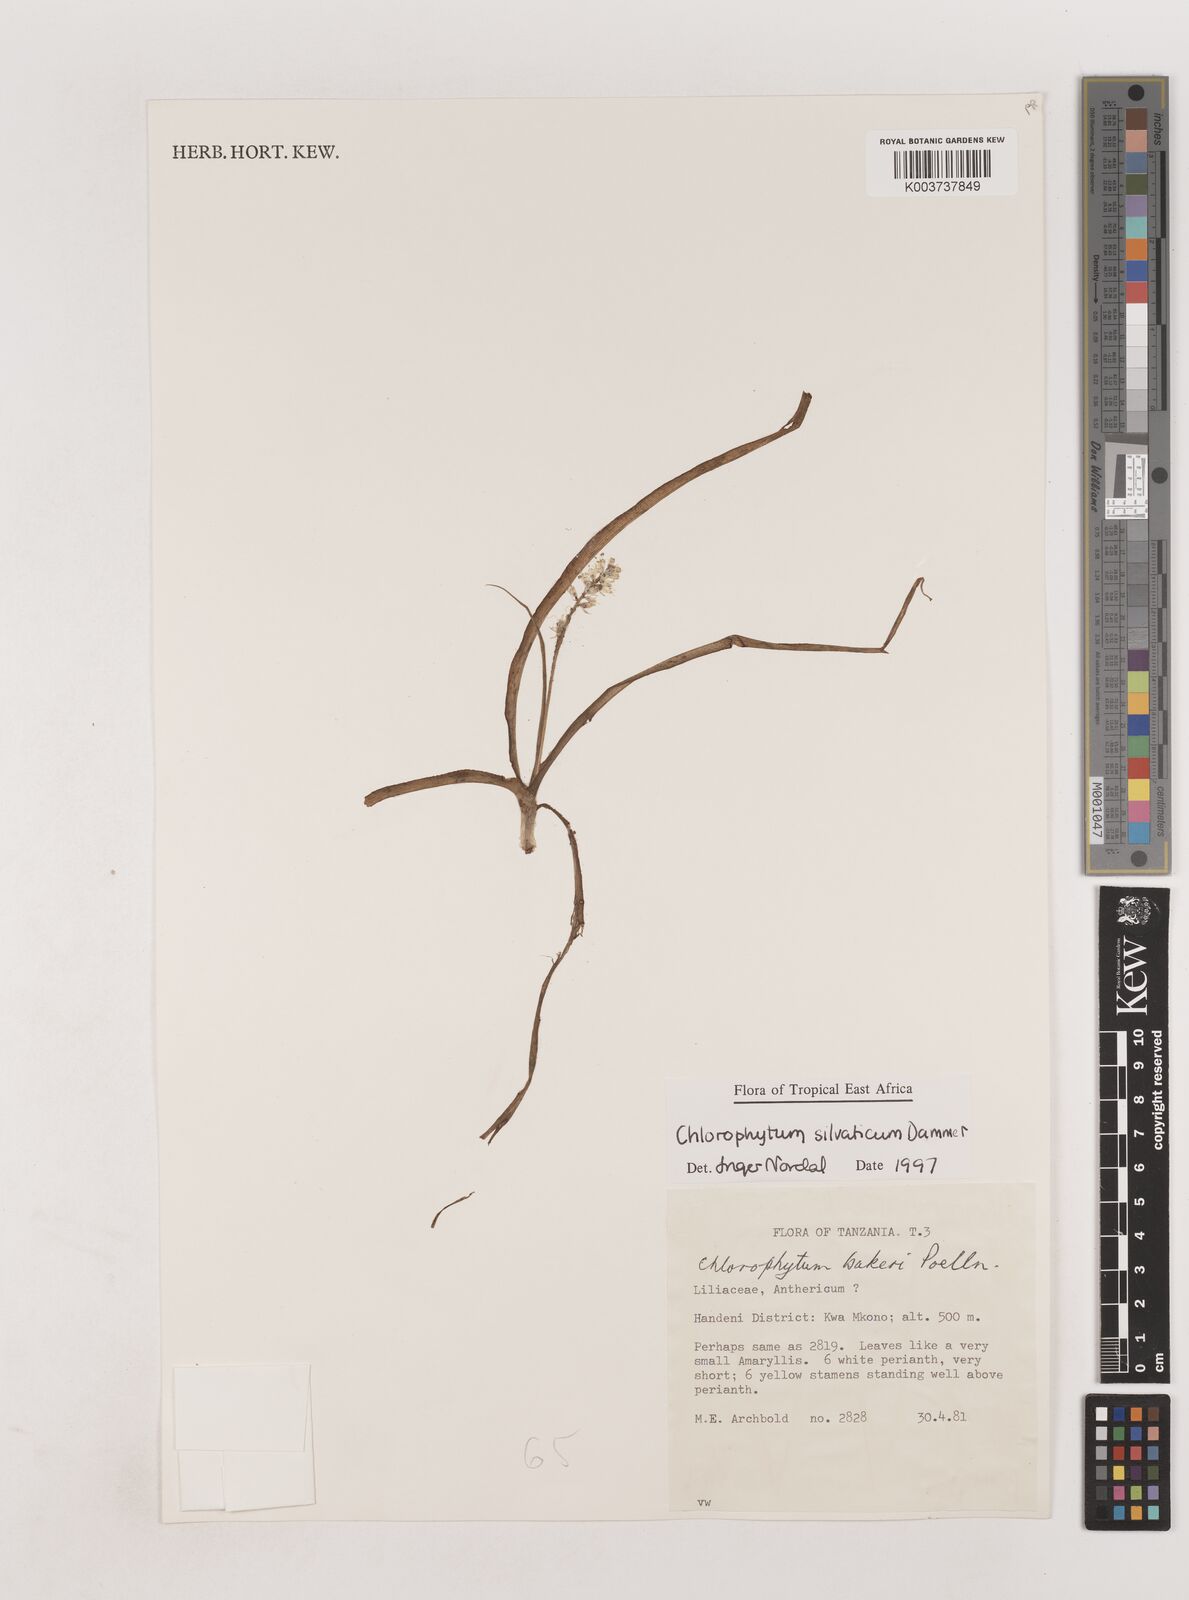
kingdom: Plantae
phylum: Tracheophyta
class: Liliopsida
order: Asparagales
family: Asparagaceae
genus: Chlorophytum
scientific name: Chlorophytum africanum
